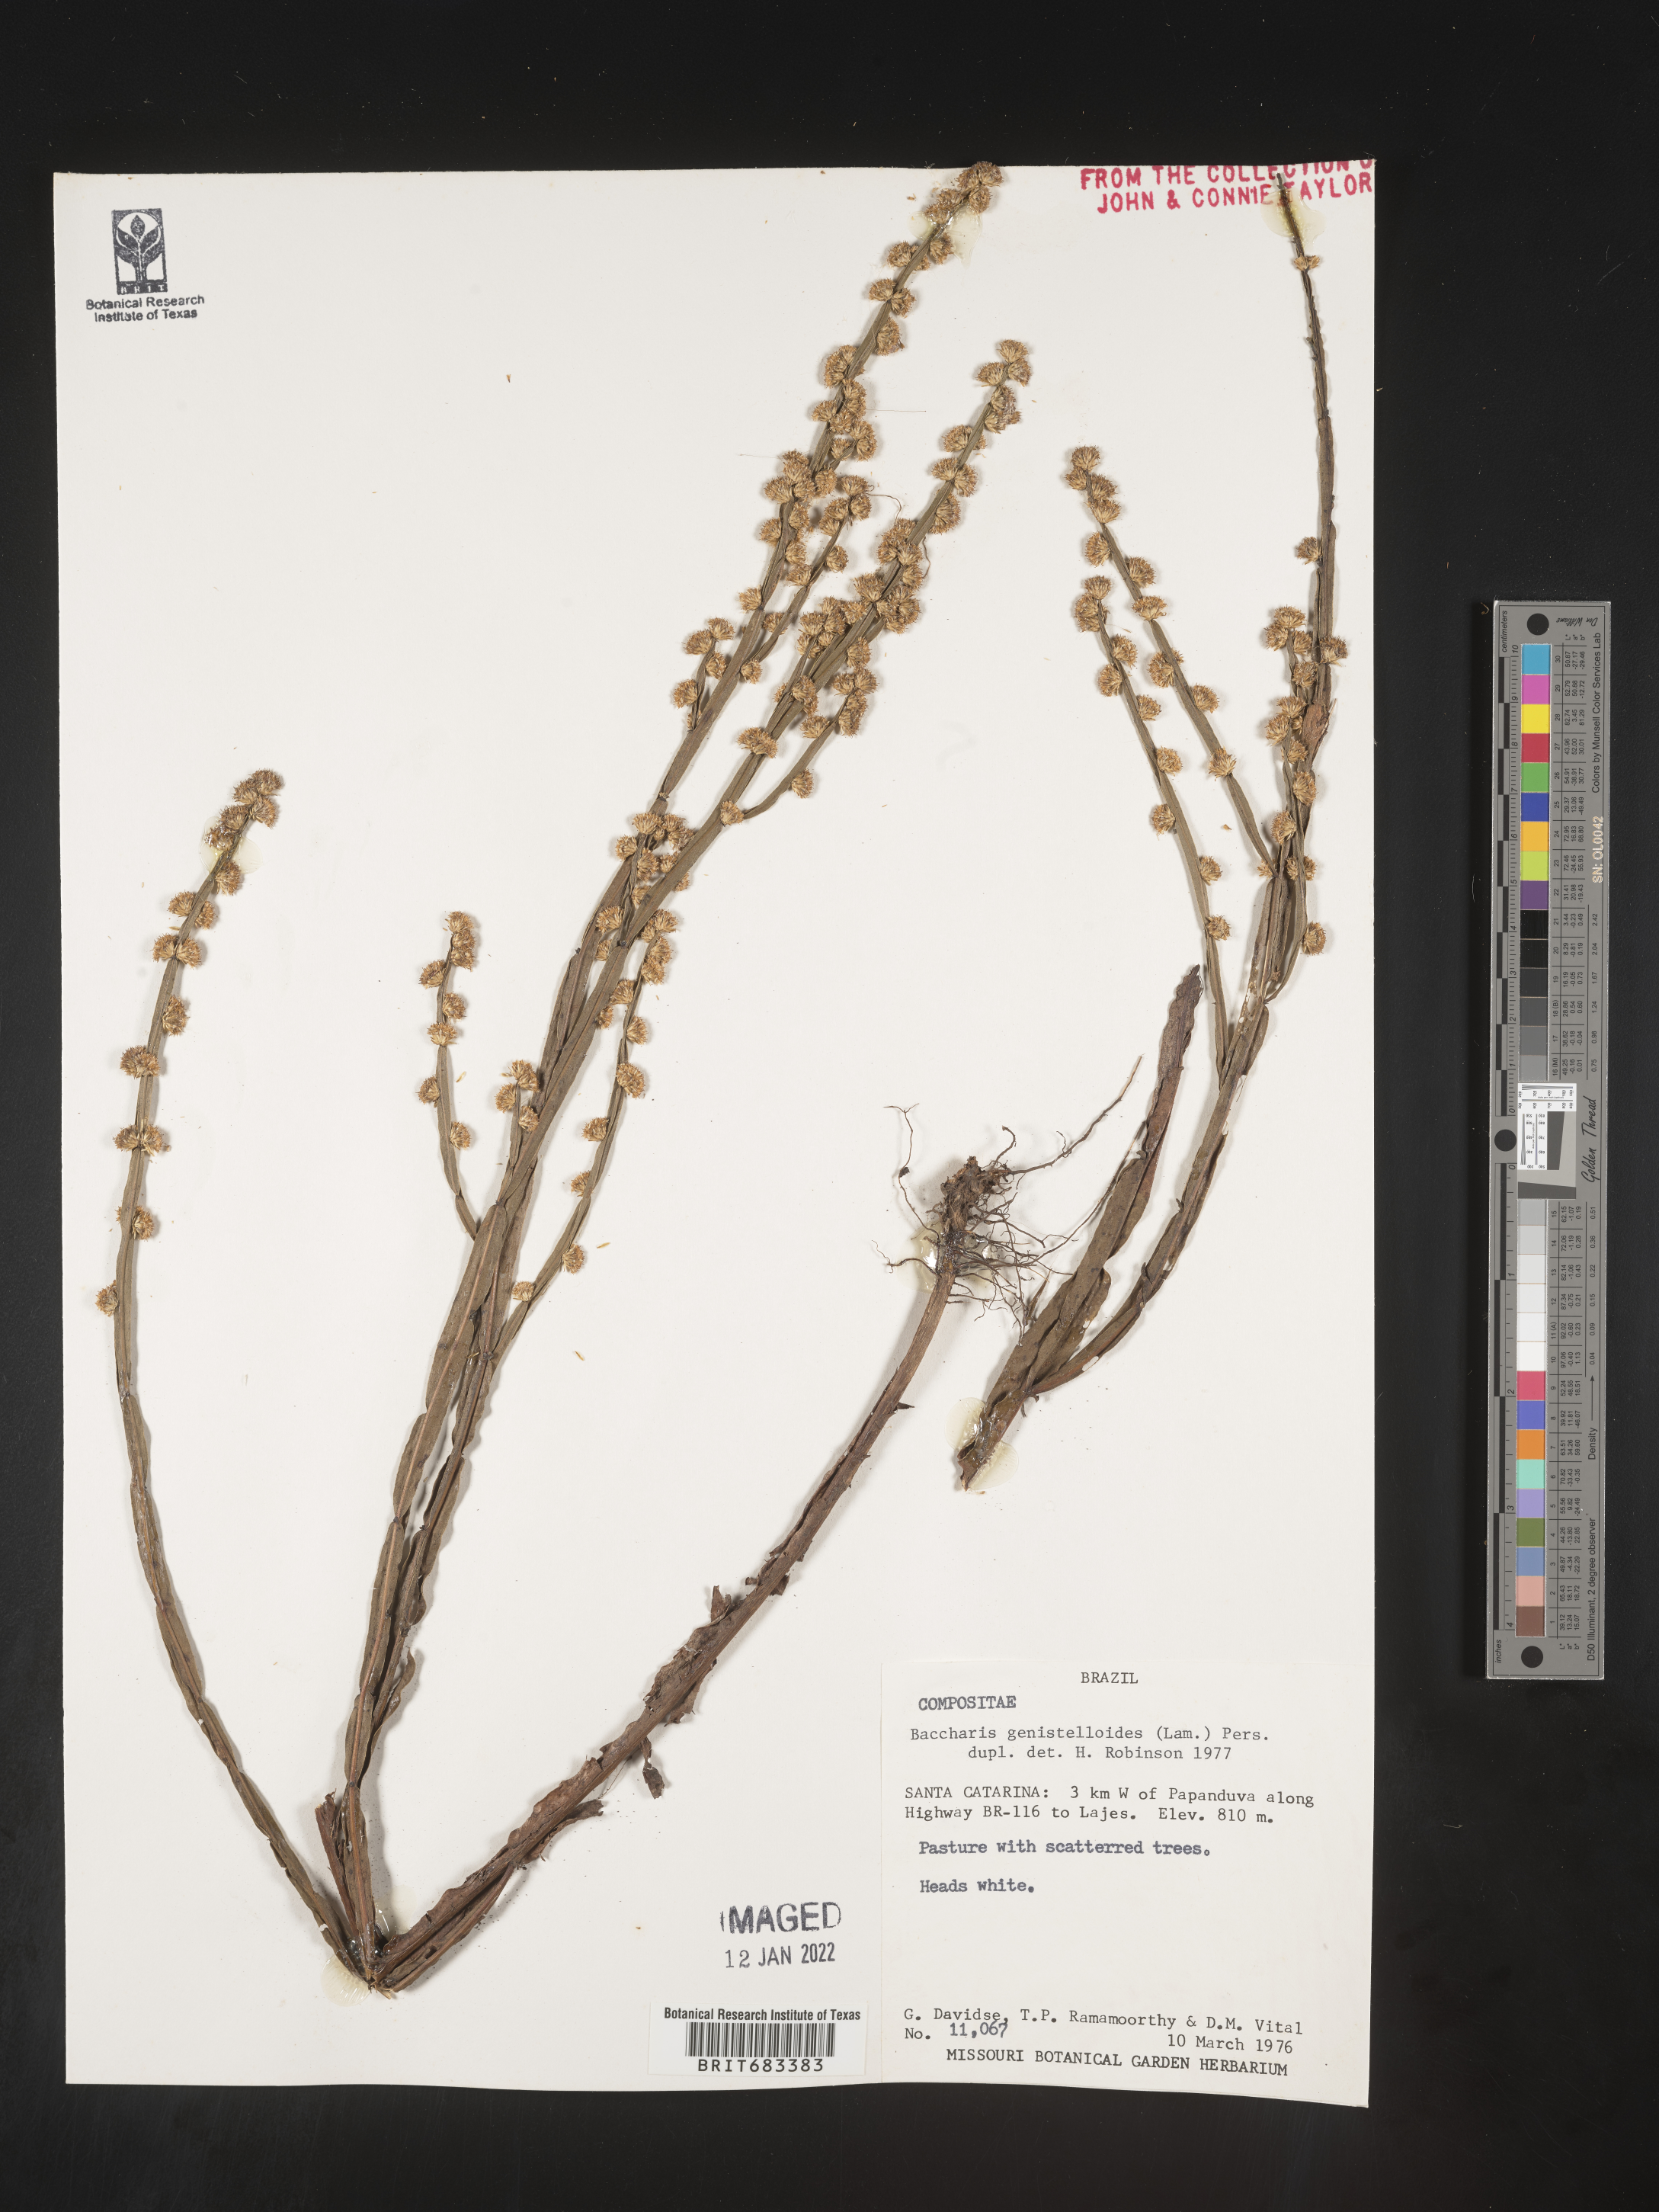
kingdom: Plantae
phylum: Tracheophyta
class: Magnoliopsida
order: Asterales
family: Asteraceae
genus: Baccharis
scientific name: Baccharis
